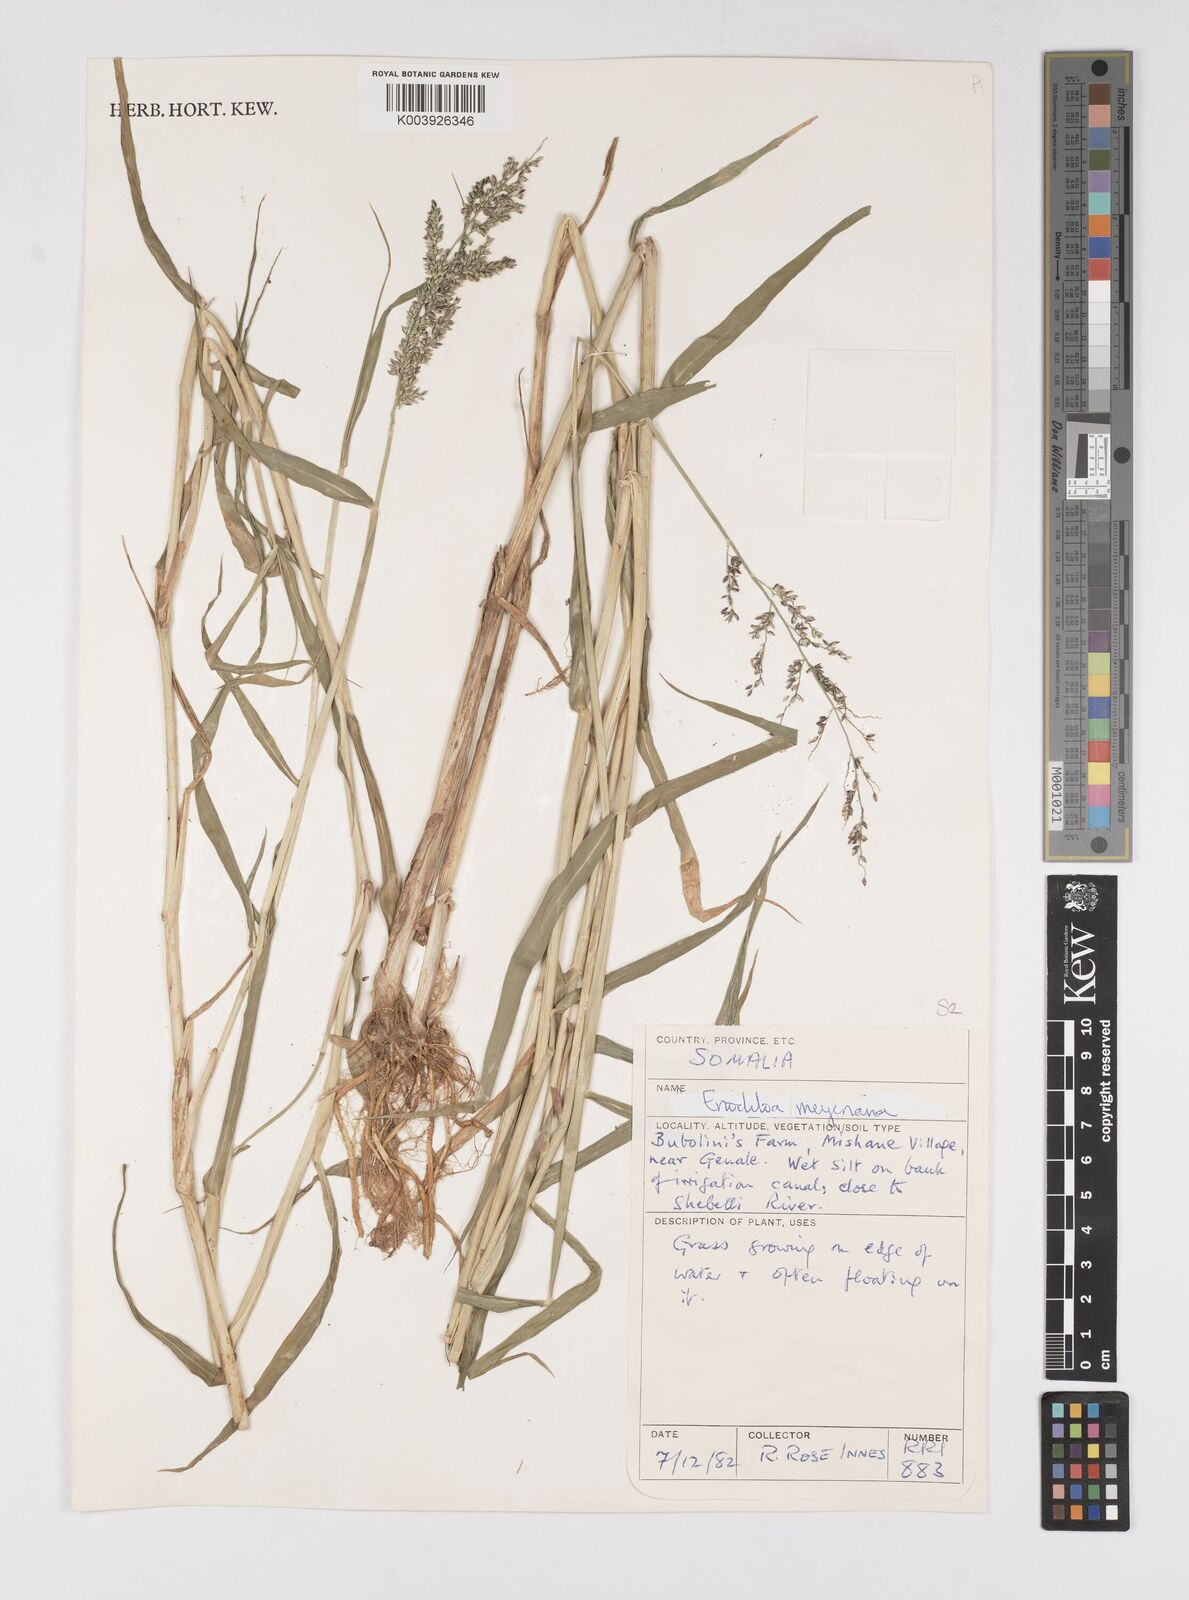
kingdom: Plantae
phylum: Tracheophyta
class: Liliopsida
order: Poales
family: Poaceae
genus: Eriochloa
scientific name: Eriochloa meyeriana
